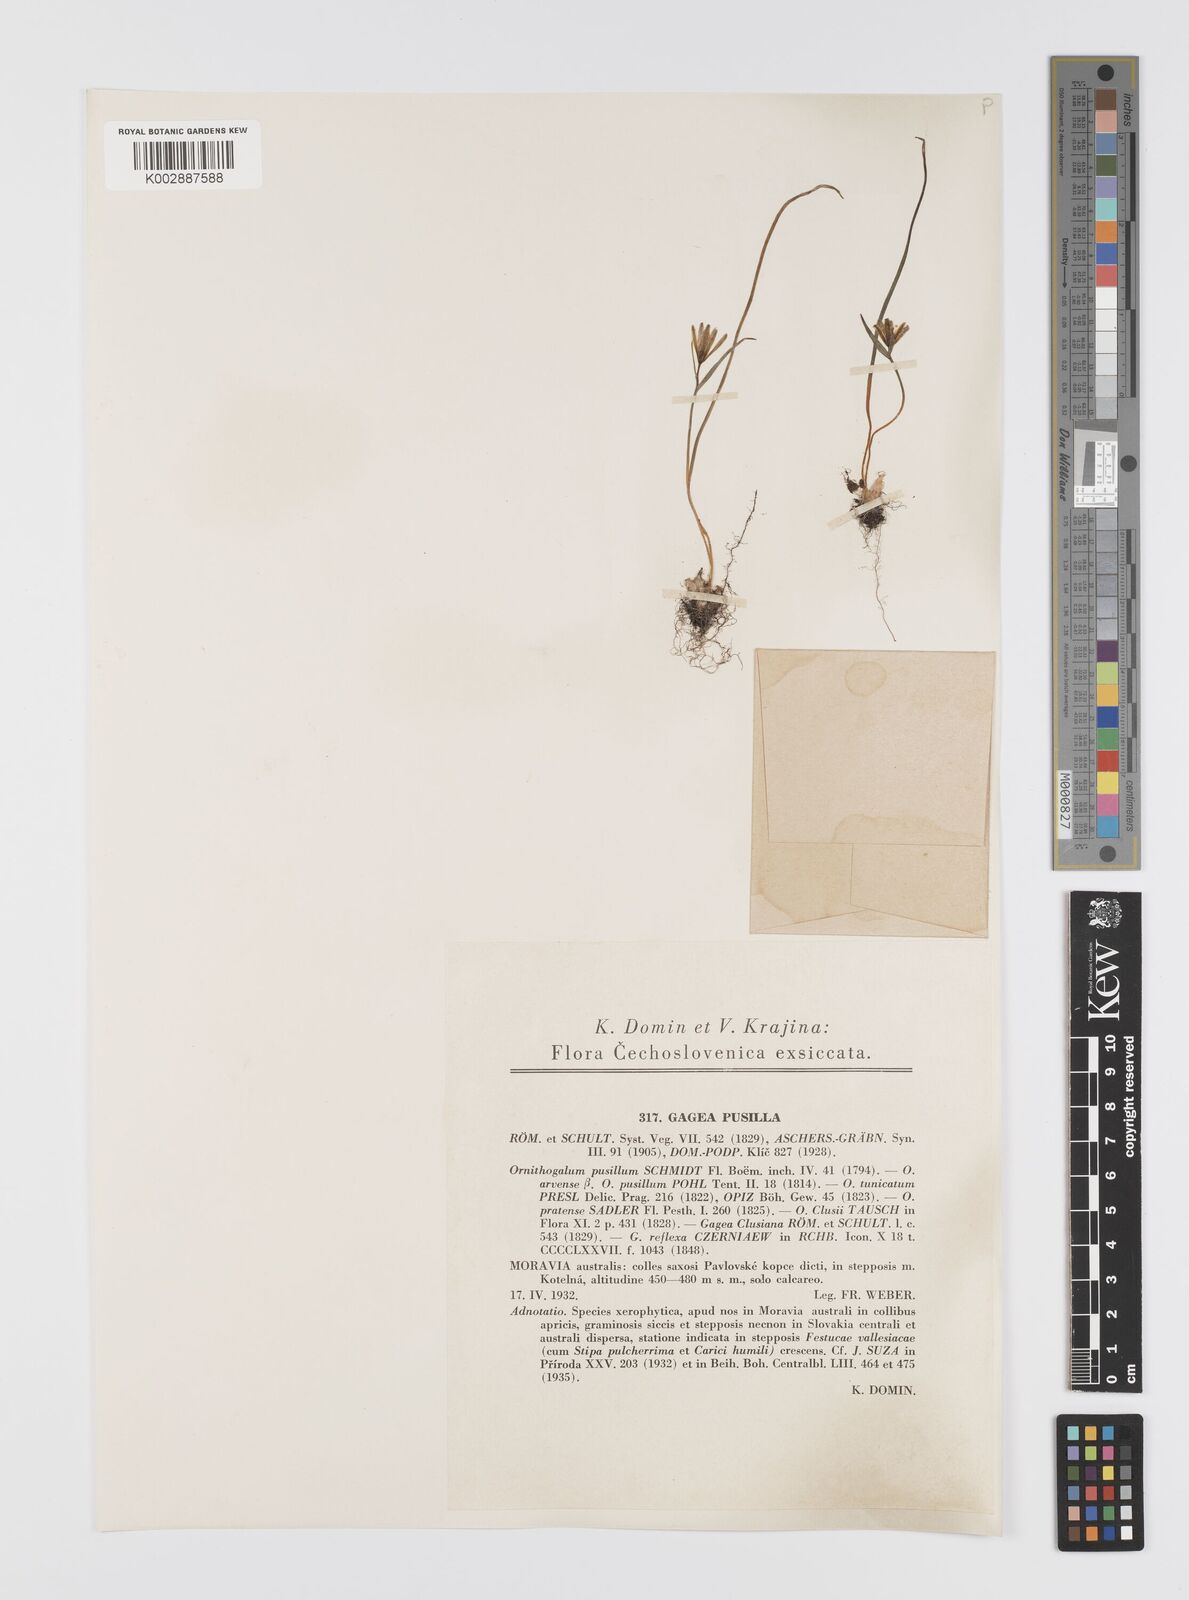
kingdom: Plantae
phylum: Tracheophyta
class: Liliopsida
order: Liliales
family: Liliaceae
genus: Gagea
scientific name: Gagea pusilla
